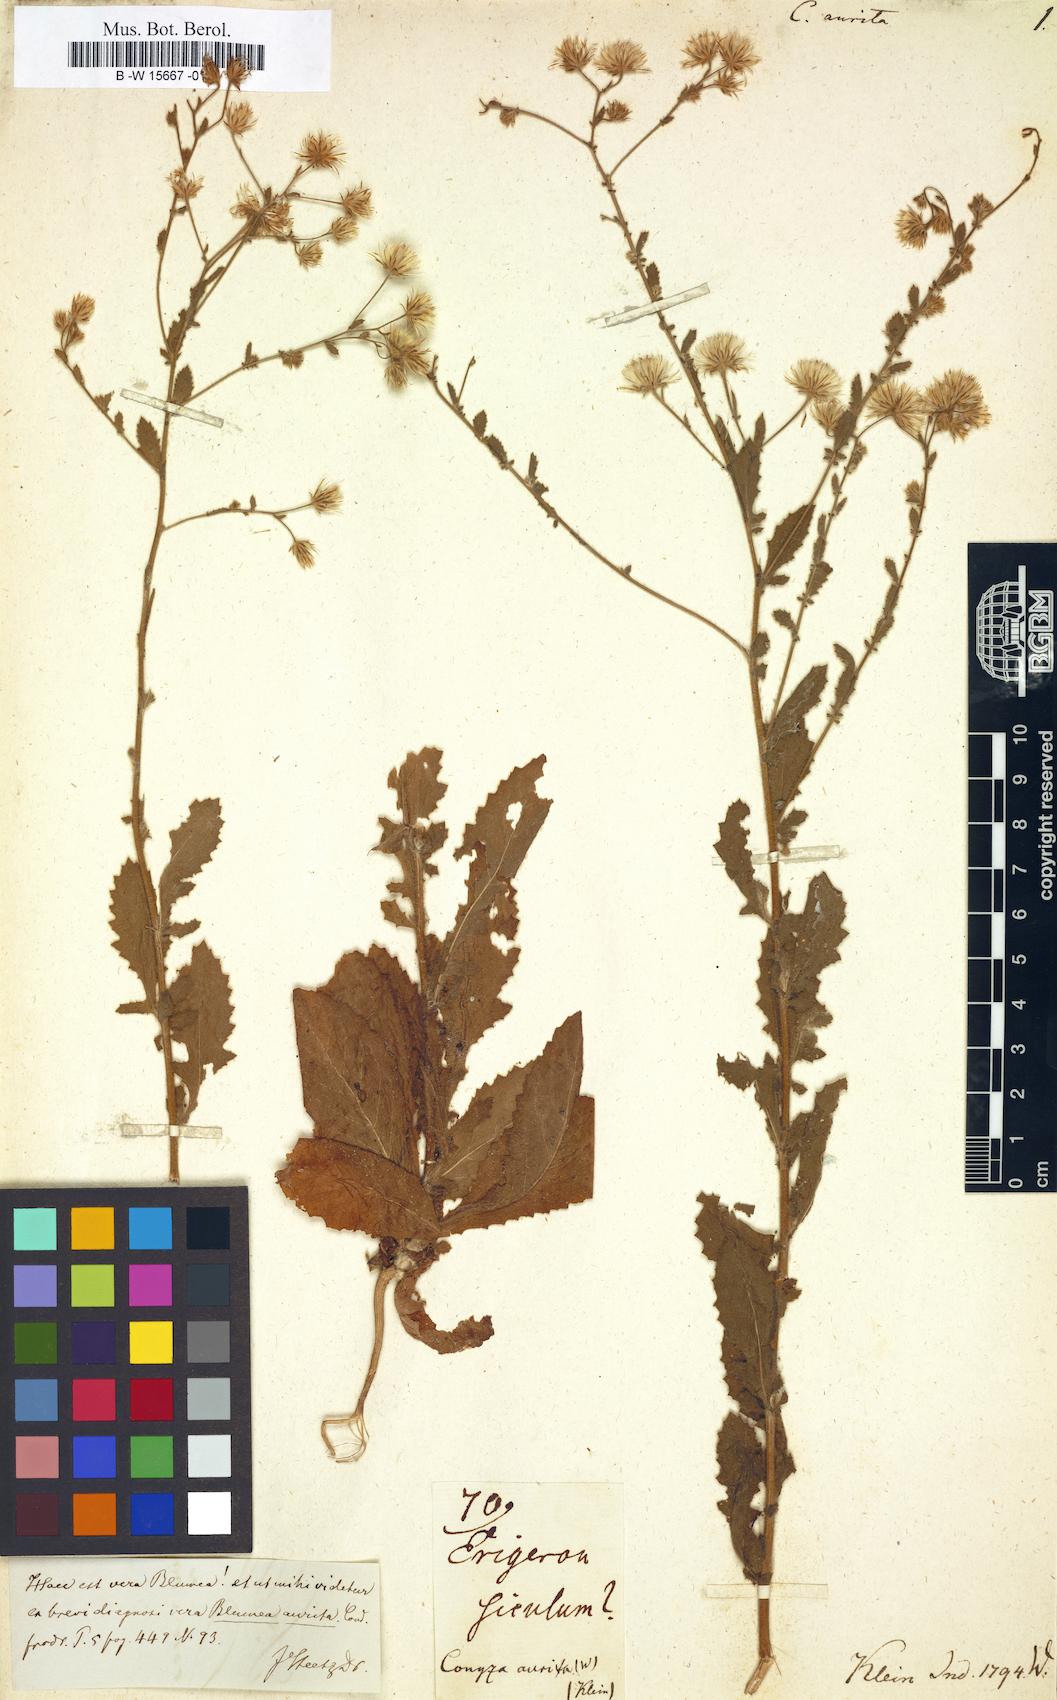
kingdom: Plantae
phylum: Tracheophyta
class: Magnoliopsida
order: Asterales
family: Asteraceae
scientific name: Asteraceae
